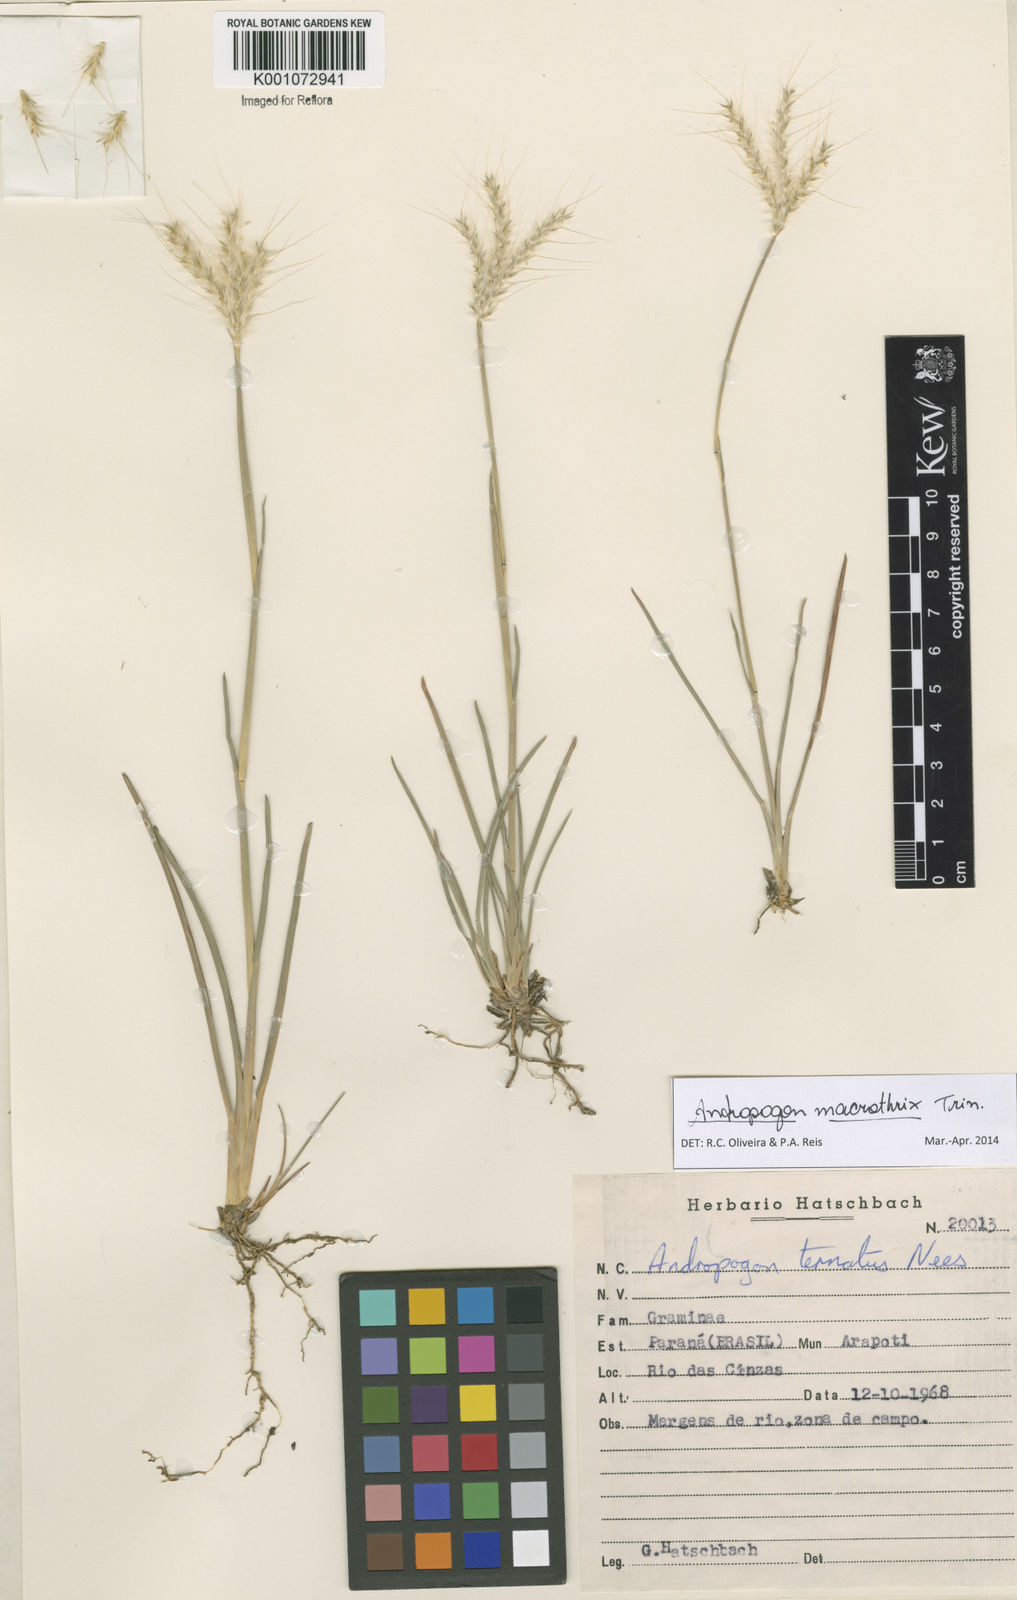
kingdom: Plantae
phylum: Tracheophyta
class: Liliopsida
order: Poales
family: Poaceae
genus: Andropogon
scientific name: Andropogon macrothrix
